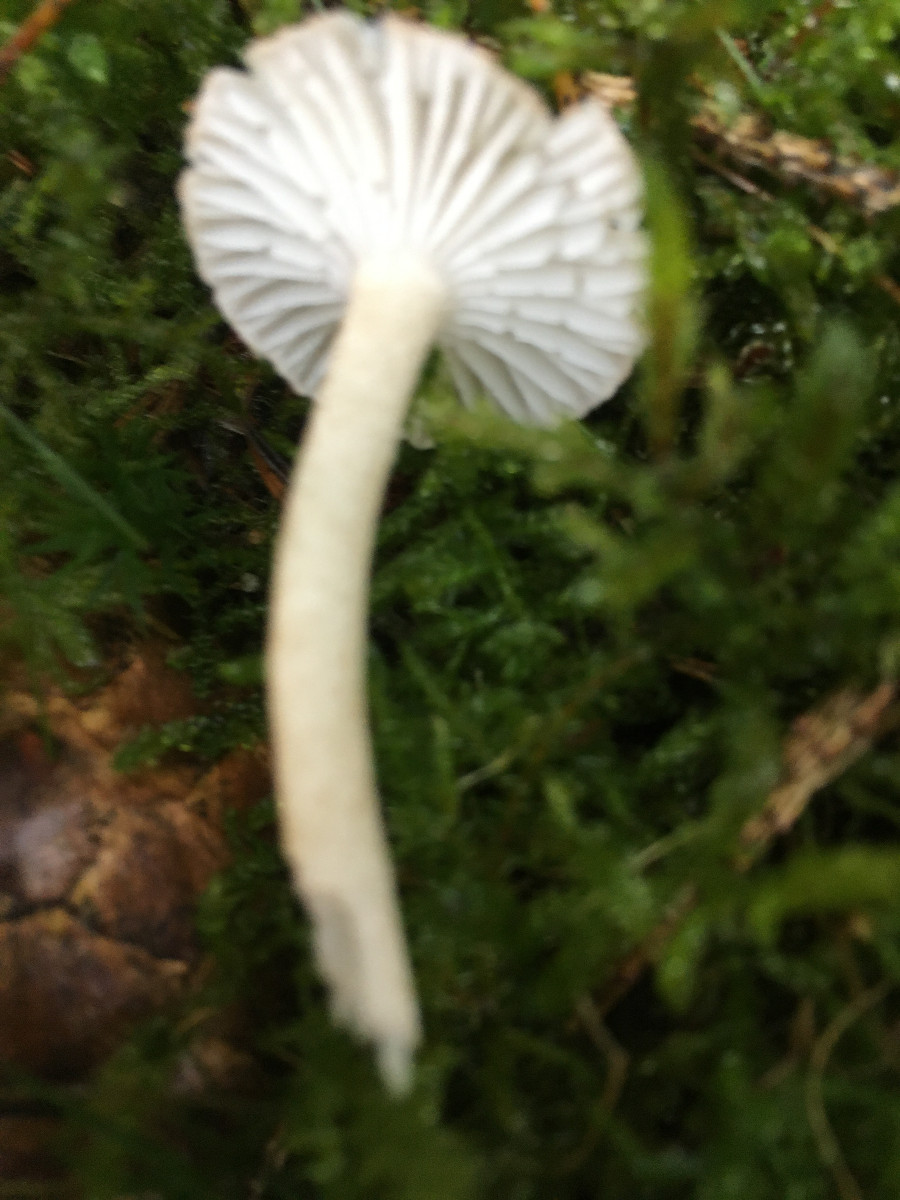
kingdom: Fungi
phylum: Basidiomycota
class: Agaricomycetes
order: Agaricales
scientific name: Agaricales
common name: champignonordenen
